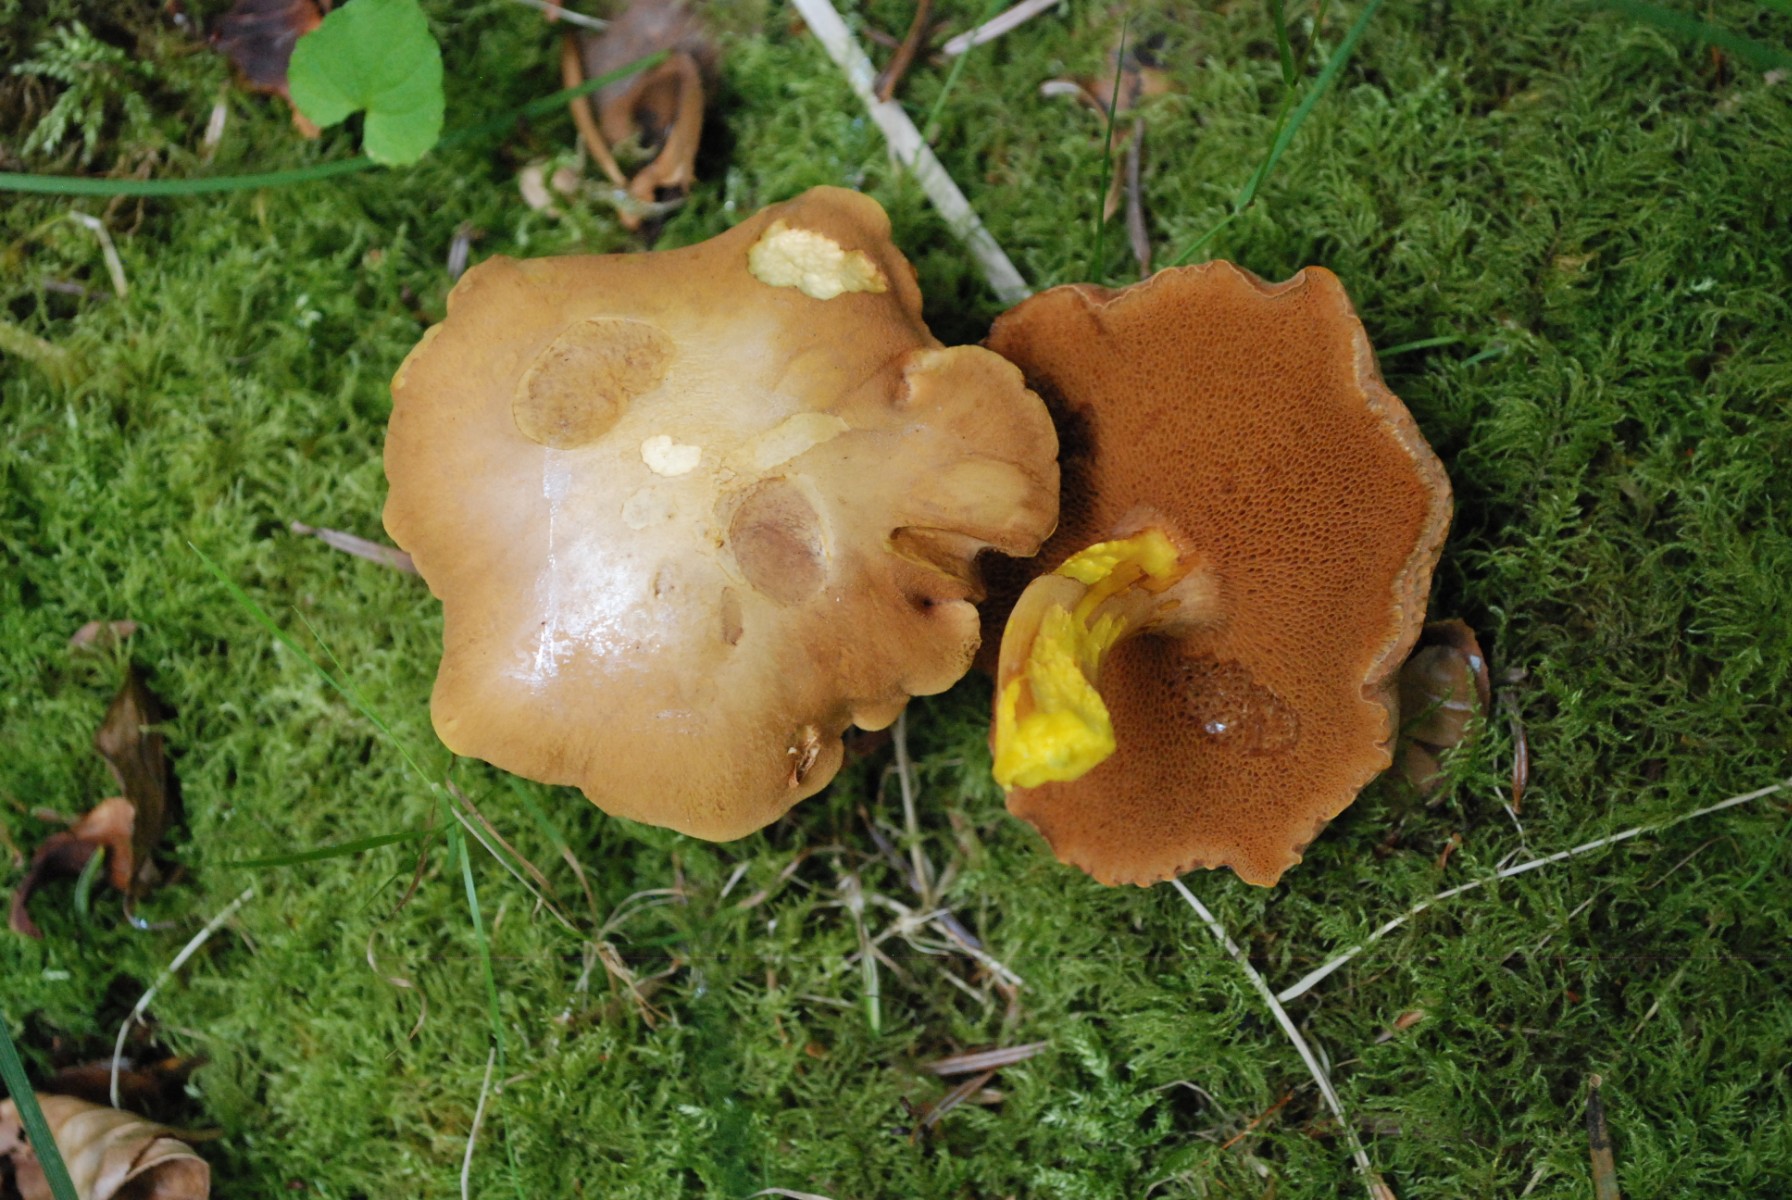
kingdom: Fungi
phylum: Basidiomycota
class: Agaricomycetes
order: Boletales
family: Boletaceae
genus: Chalciporus
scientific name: Chalciporus piperatus
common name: peberrørhat
